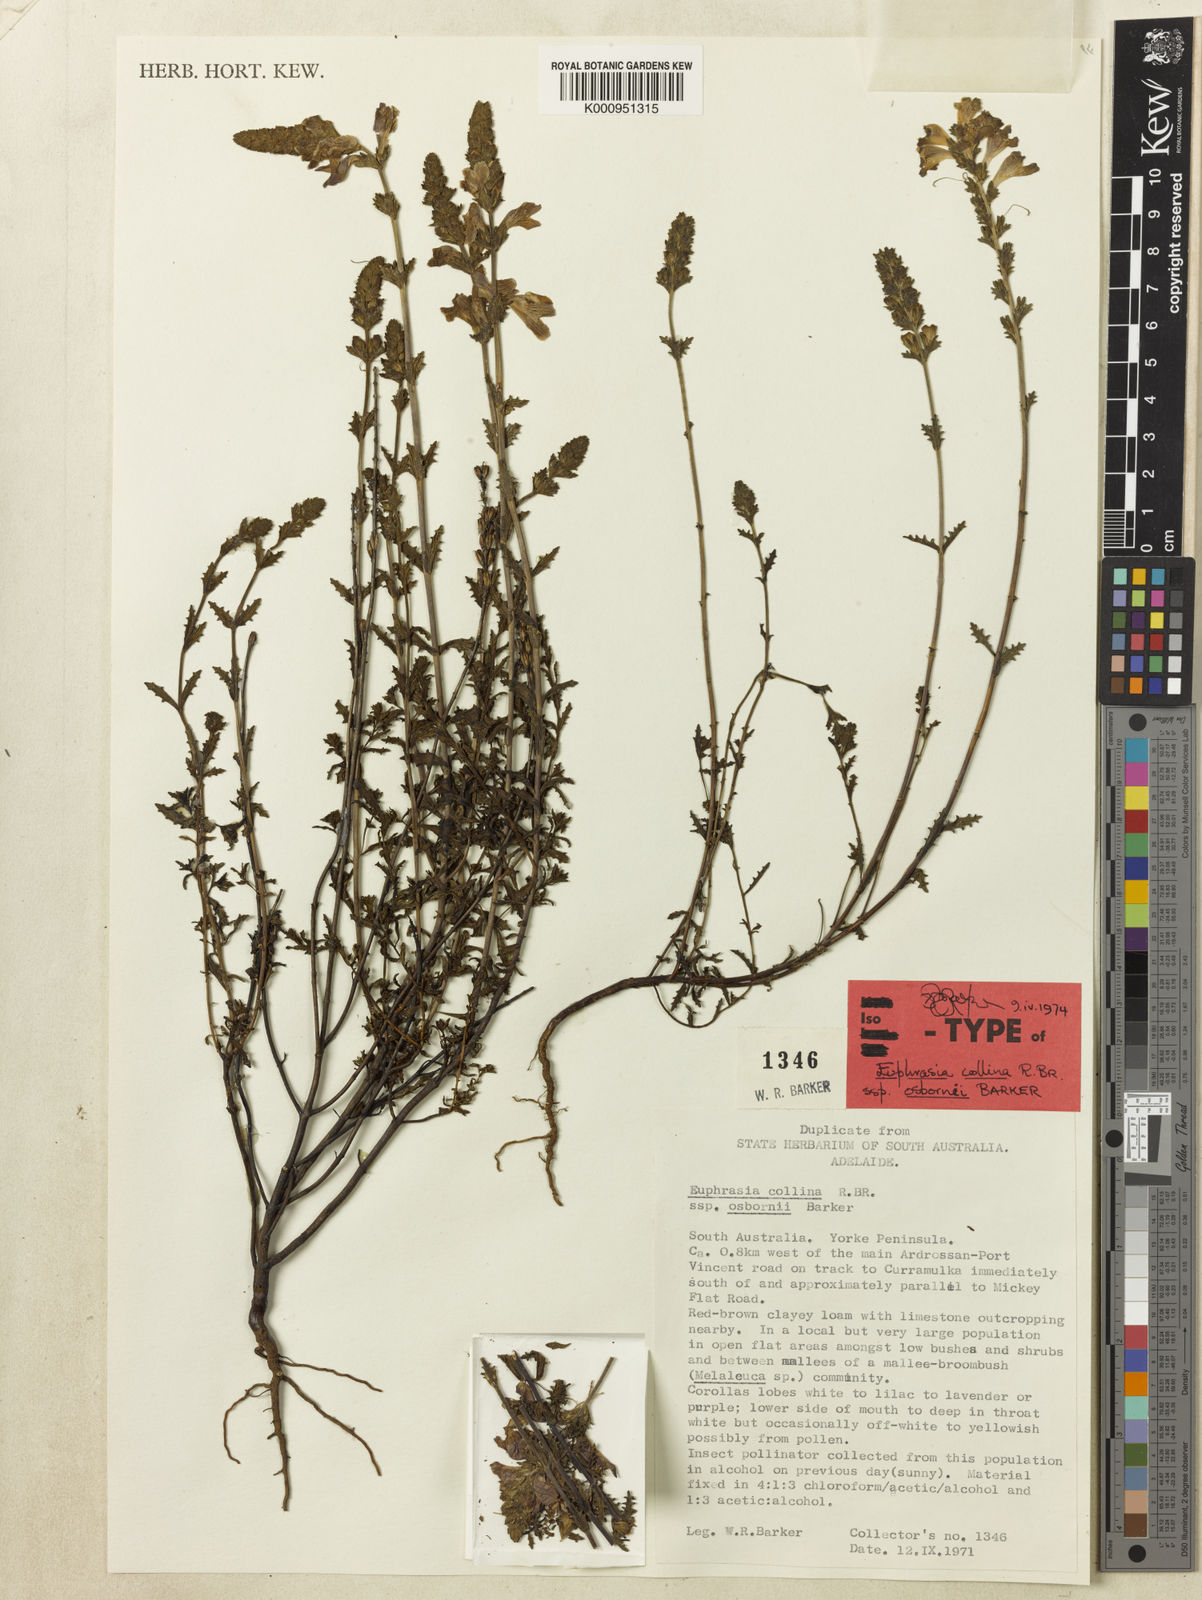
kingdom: Plantae
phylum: Tracheophyta
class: Magnoliopsida
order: Lamiales
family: Orobanchaceae
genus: Euphrasia
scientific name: Euphrasia collina
